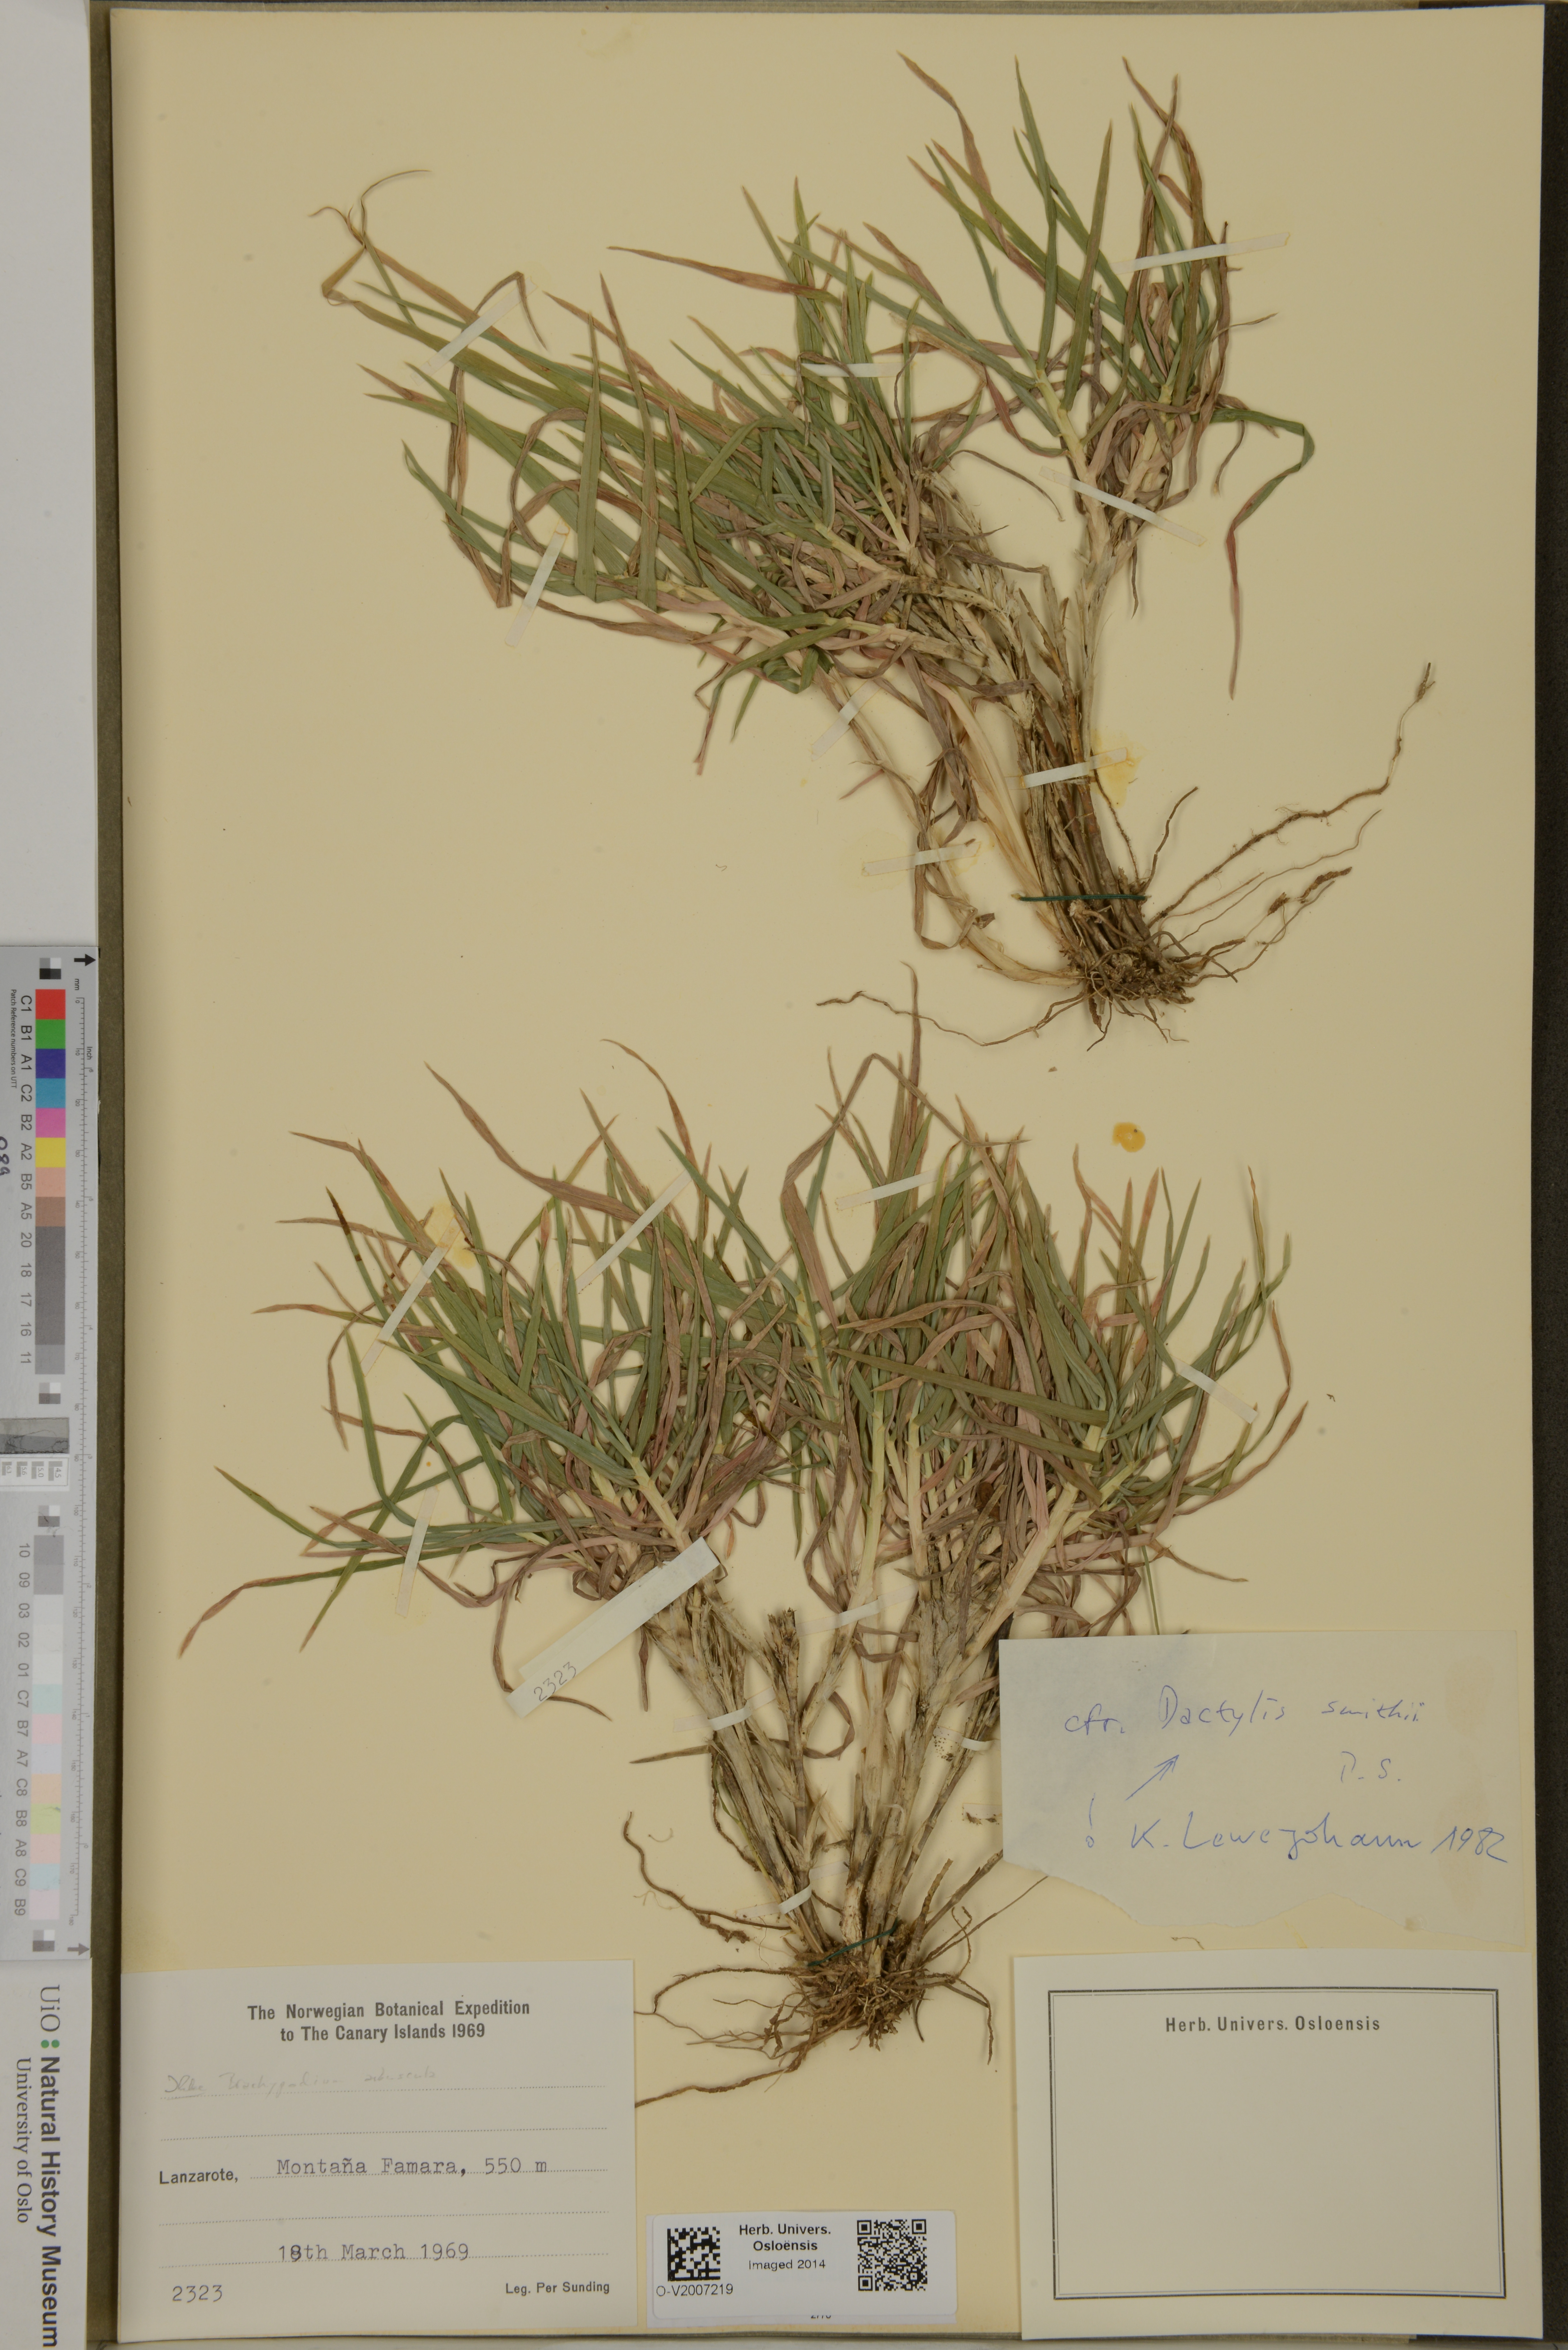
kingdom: Plantae
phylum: Tracheophyta
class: Liliopsida
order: Poales
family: Poaceae
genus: Dactylis
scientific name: Dactylis smithii
